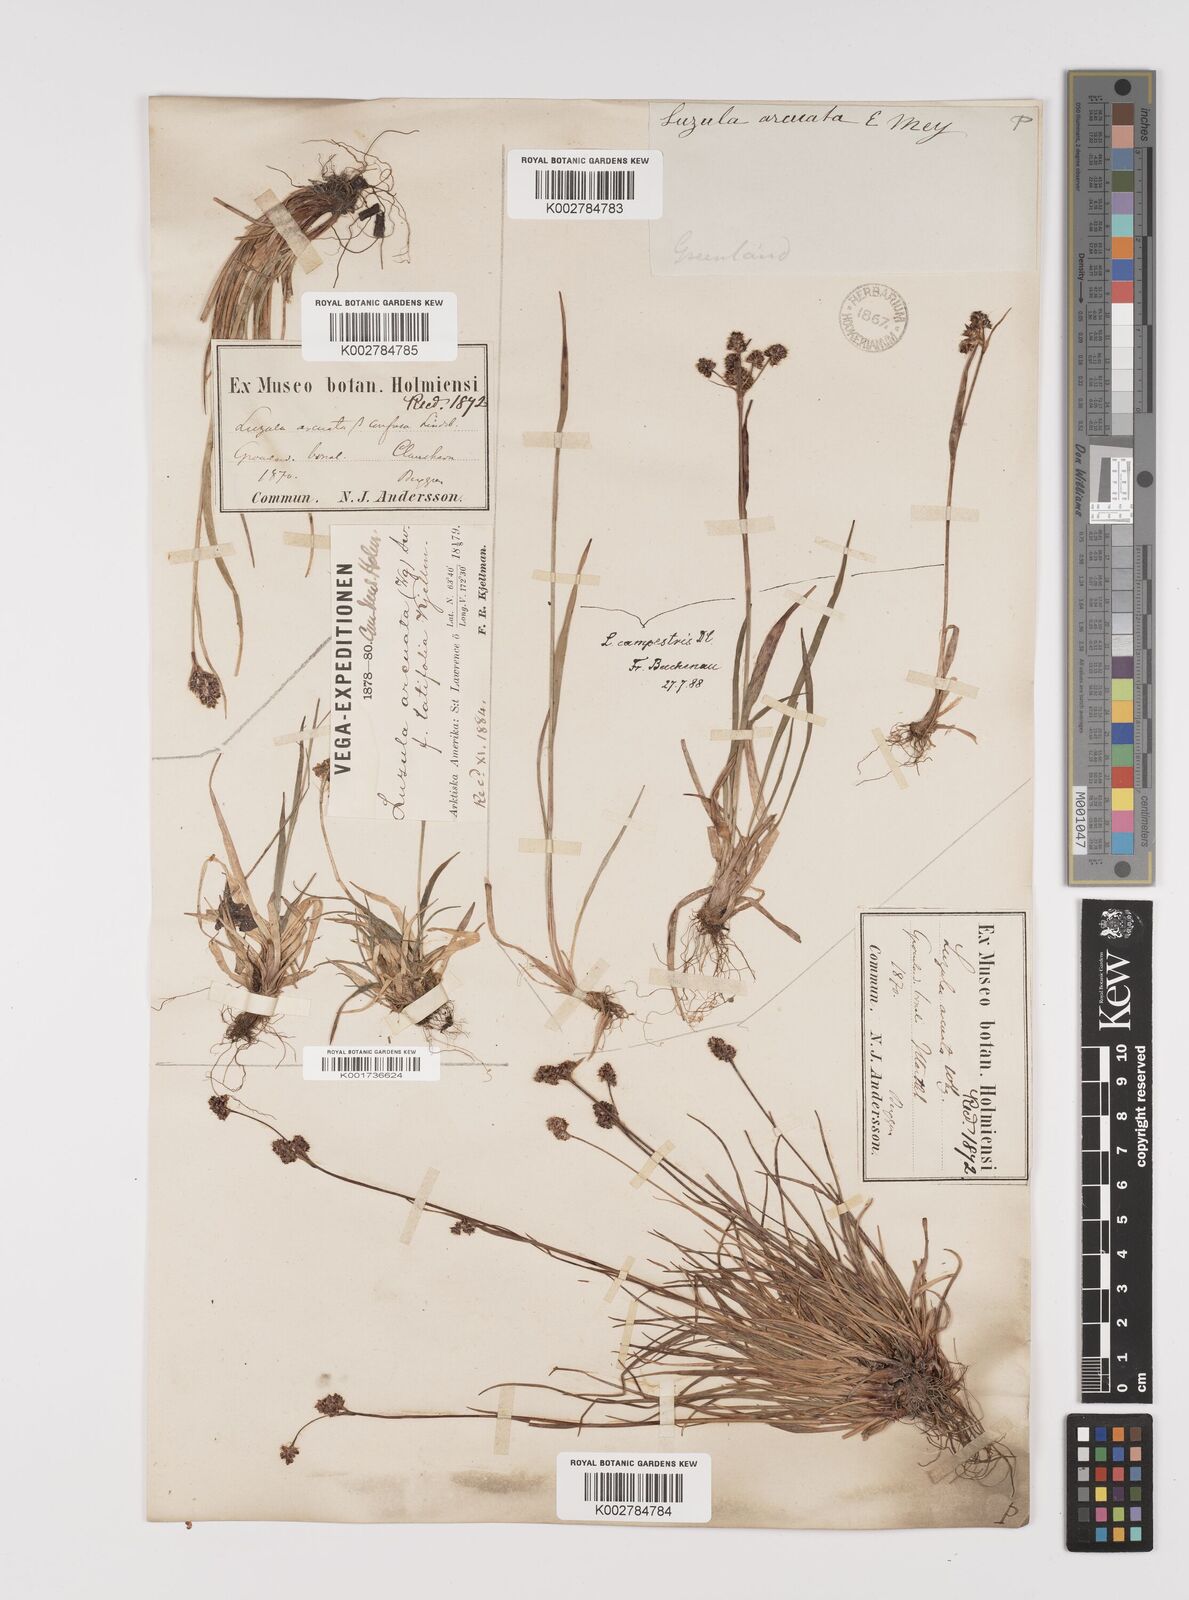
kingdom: Plantae
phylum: Tracheophyta
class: Liliopsida
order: Poales
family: Juncaceae
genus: Luzula
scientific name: Luzula confusa
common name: Northern wood rush
